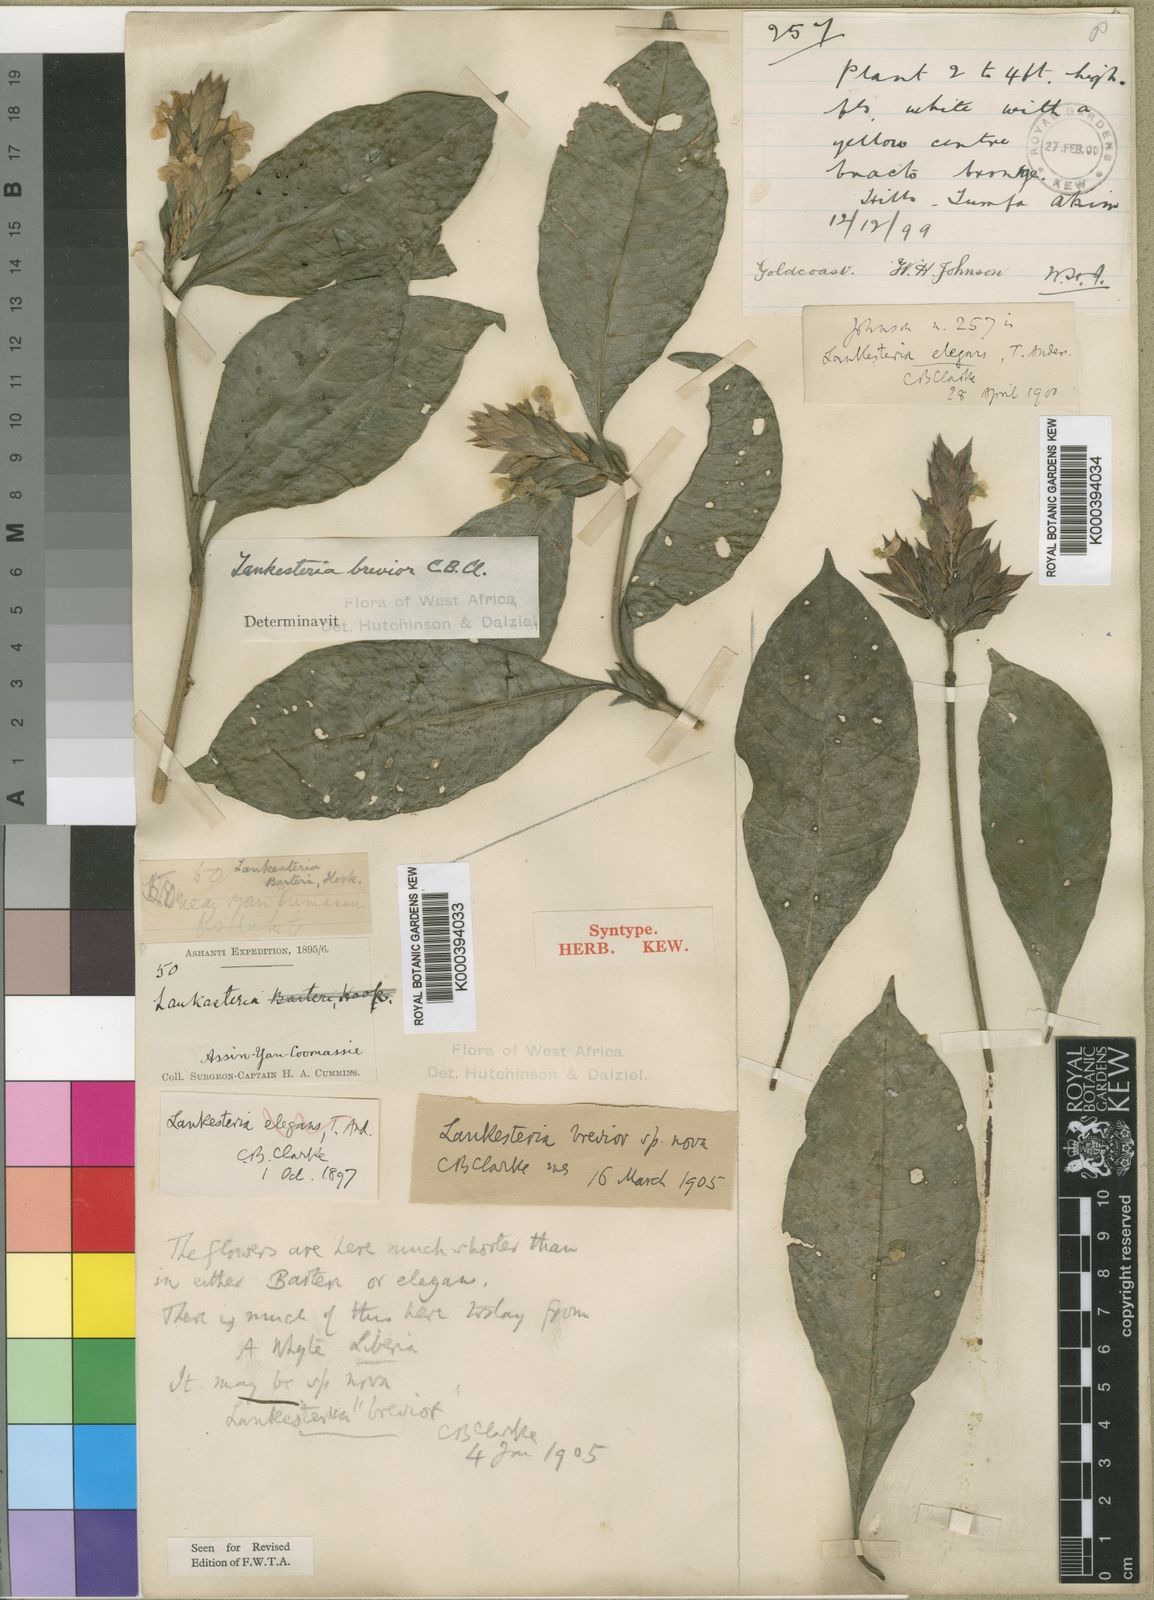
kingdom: Plantae
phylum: Tracheophyta
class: Magnoliopsida
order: Lamiales
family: Acanthaceae
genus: Lankesteria
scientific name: Lankesteria brevior
